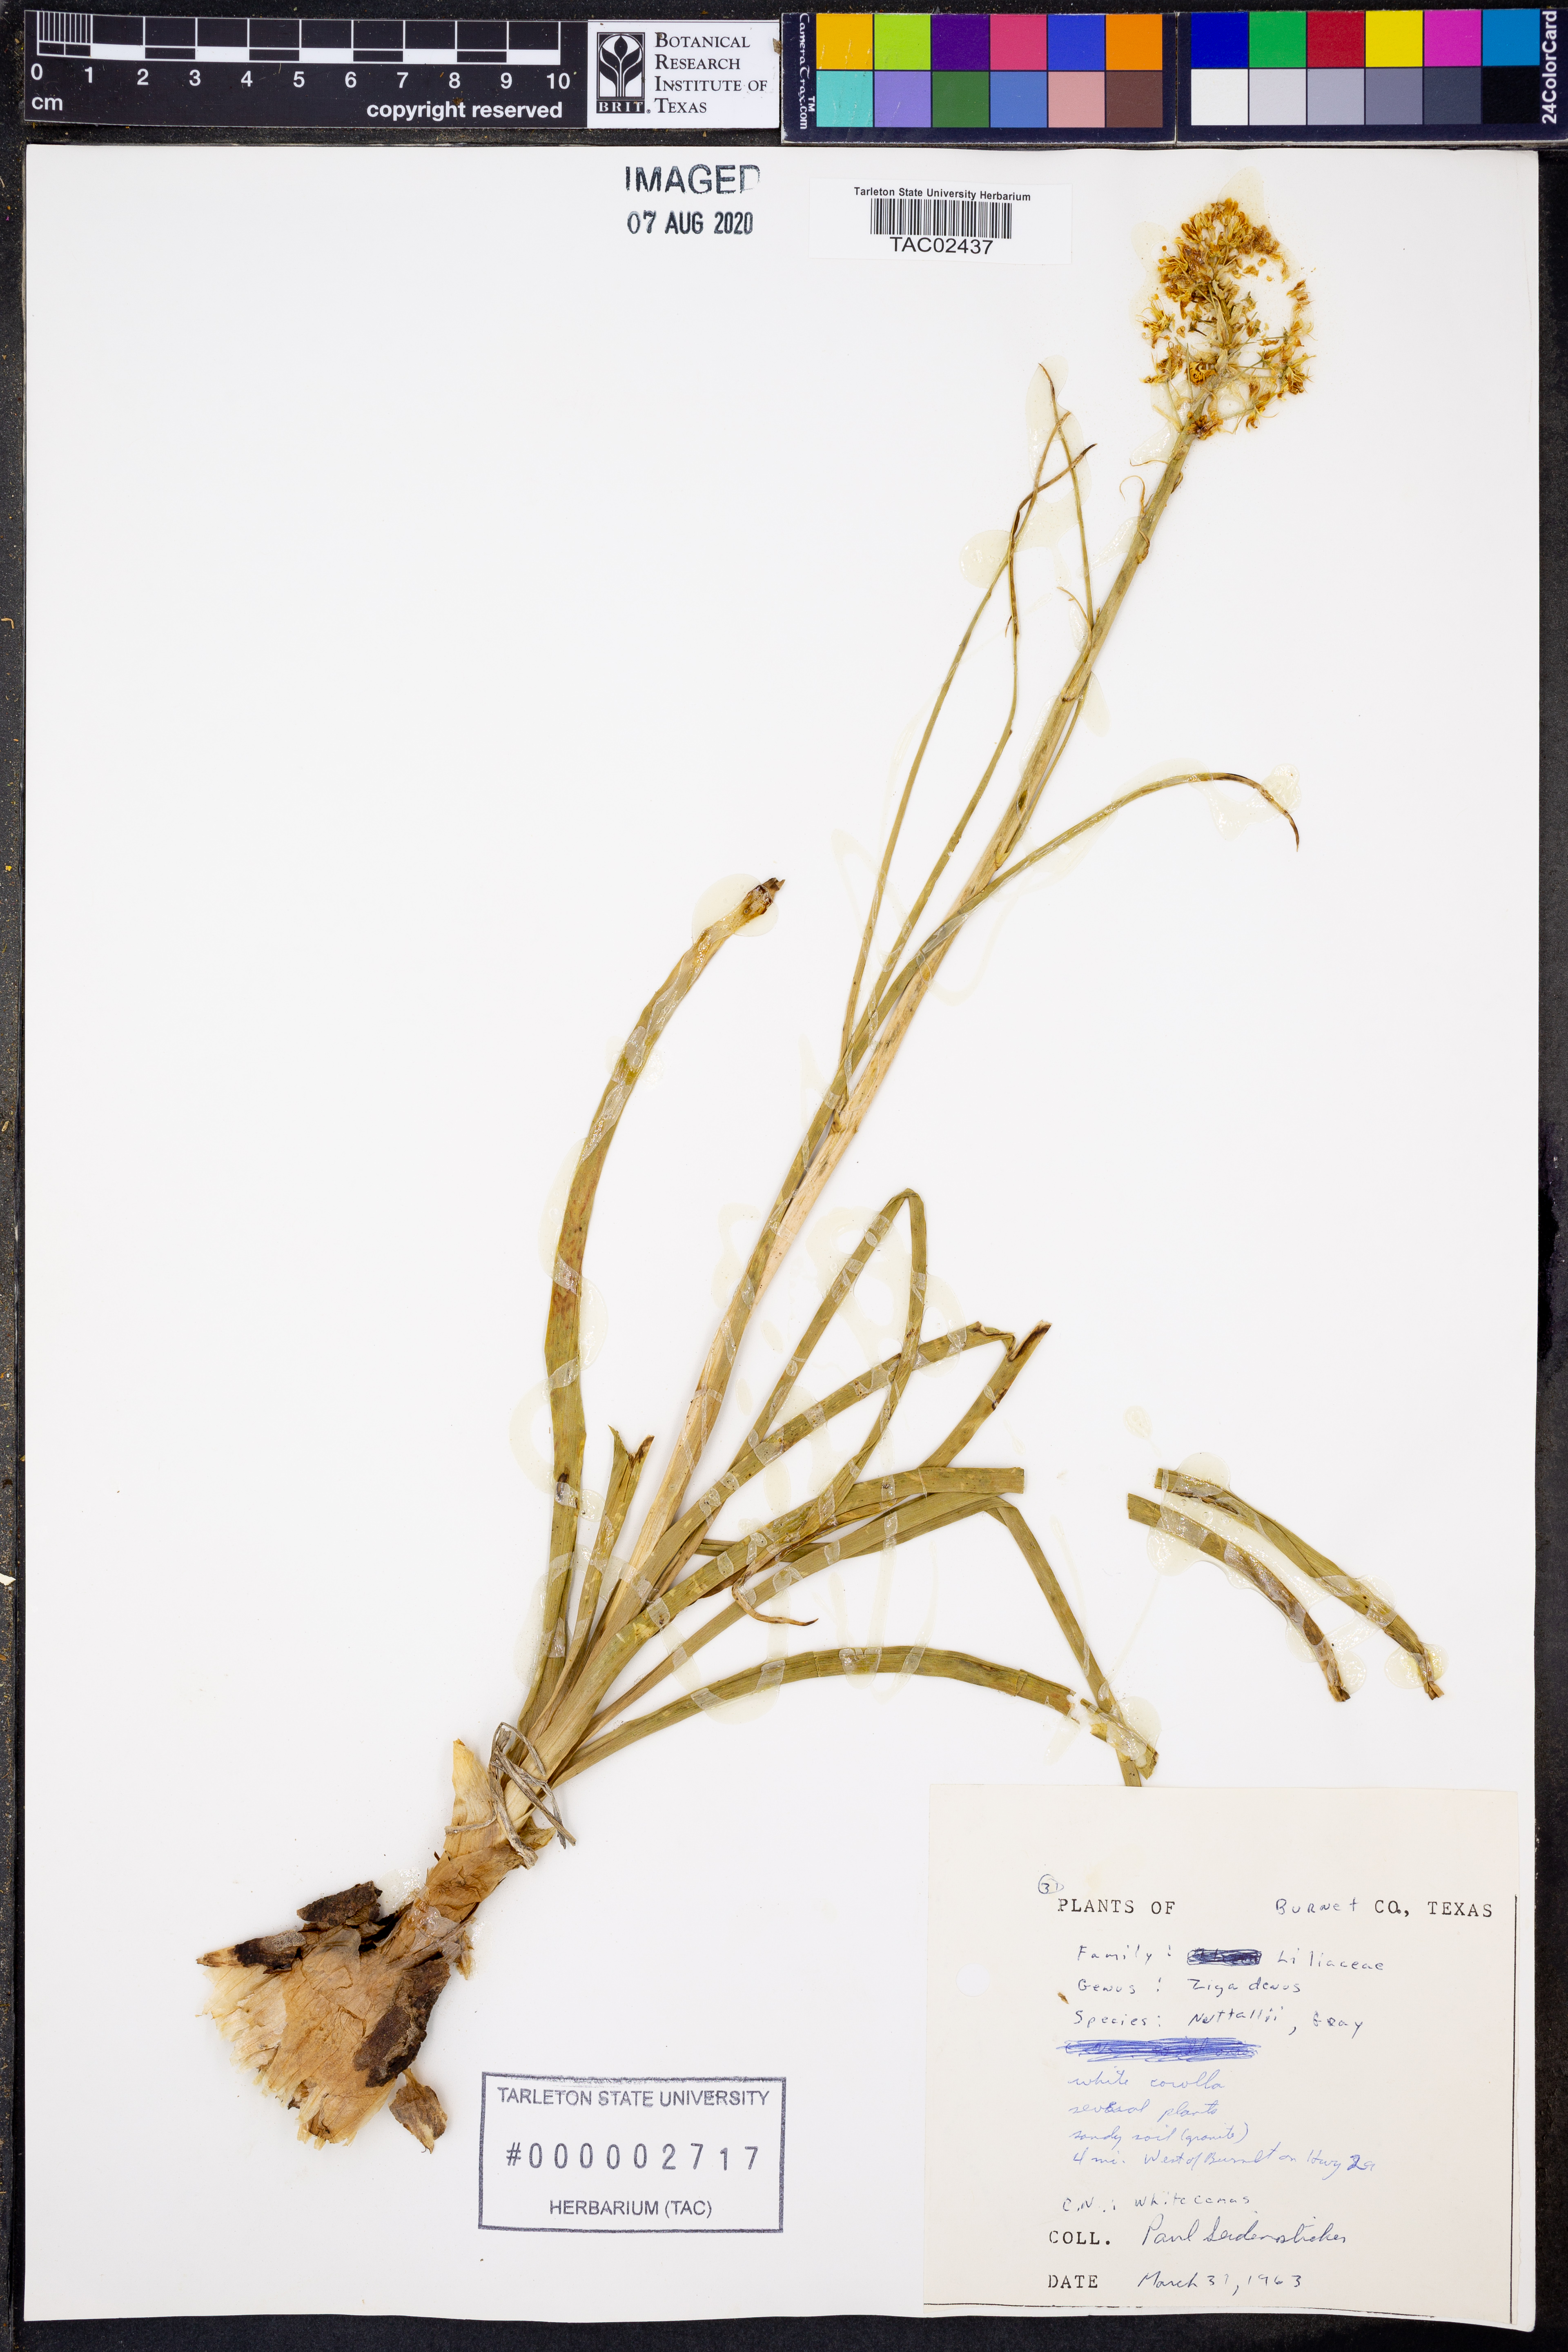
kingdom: Plantae
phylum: Tracheophyta
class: Liliopsida
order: Liliales
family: Melanthiaceae
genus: Toxicoscordion
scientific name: Toxicoscordion nuttallii
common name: Poison sego
